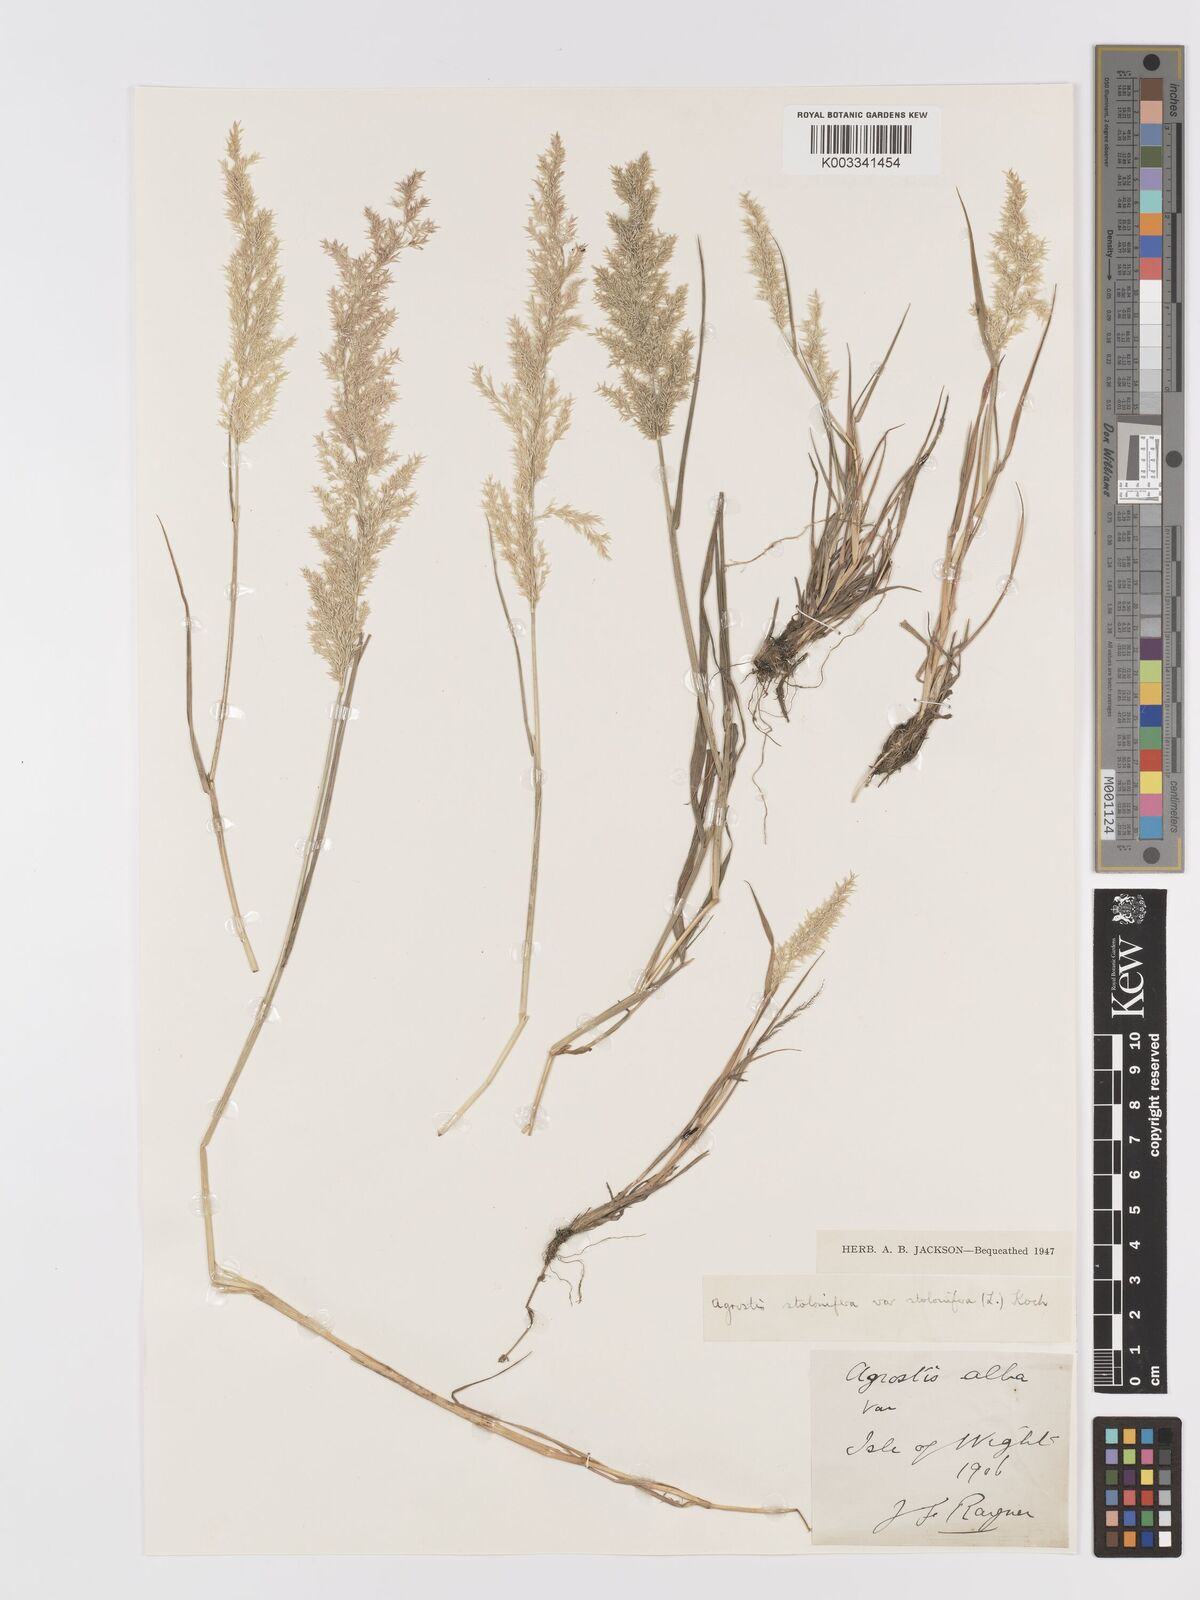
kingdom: Plantae
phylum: Tracheophyta
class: Liliopsida
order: Poales
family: Poaceae
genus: Agrostis
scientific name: Agrostis stolonifera
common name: Creeping bentgrass
